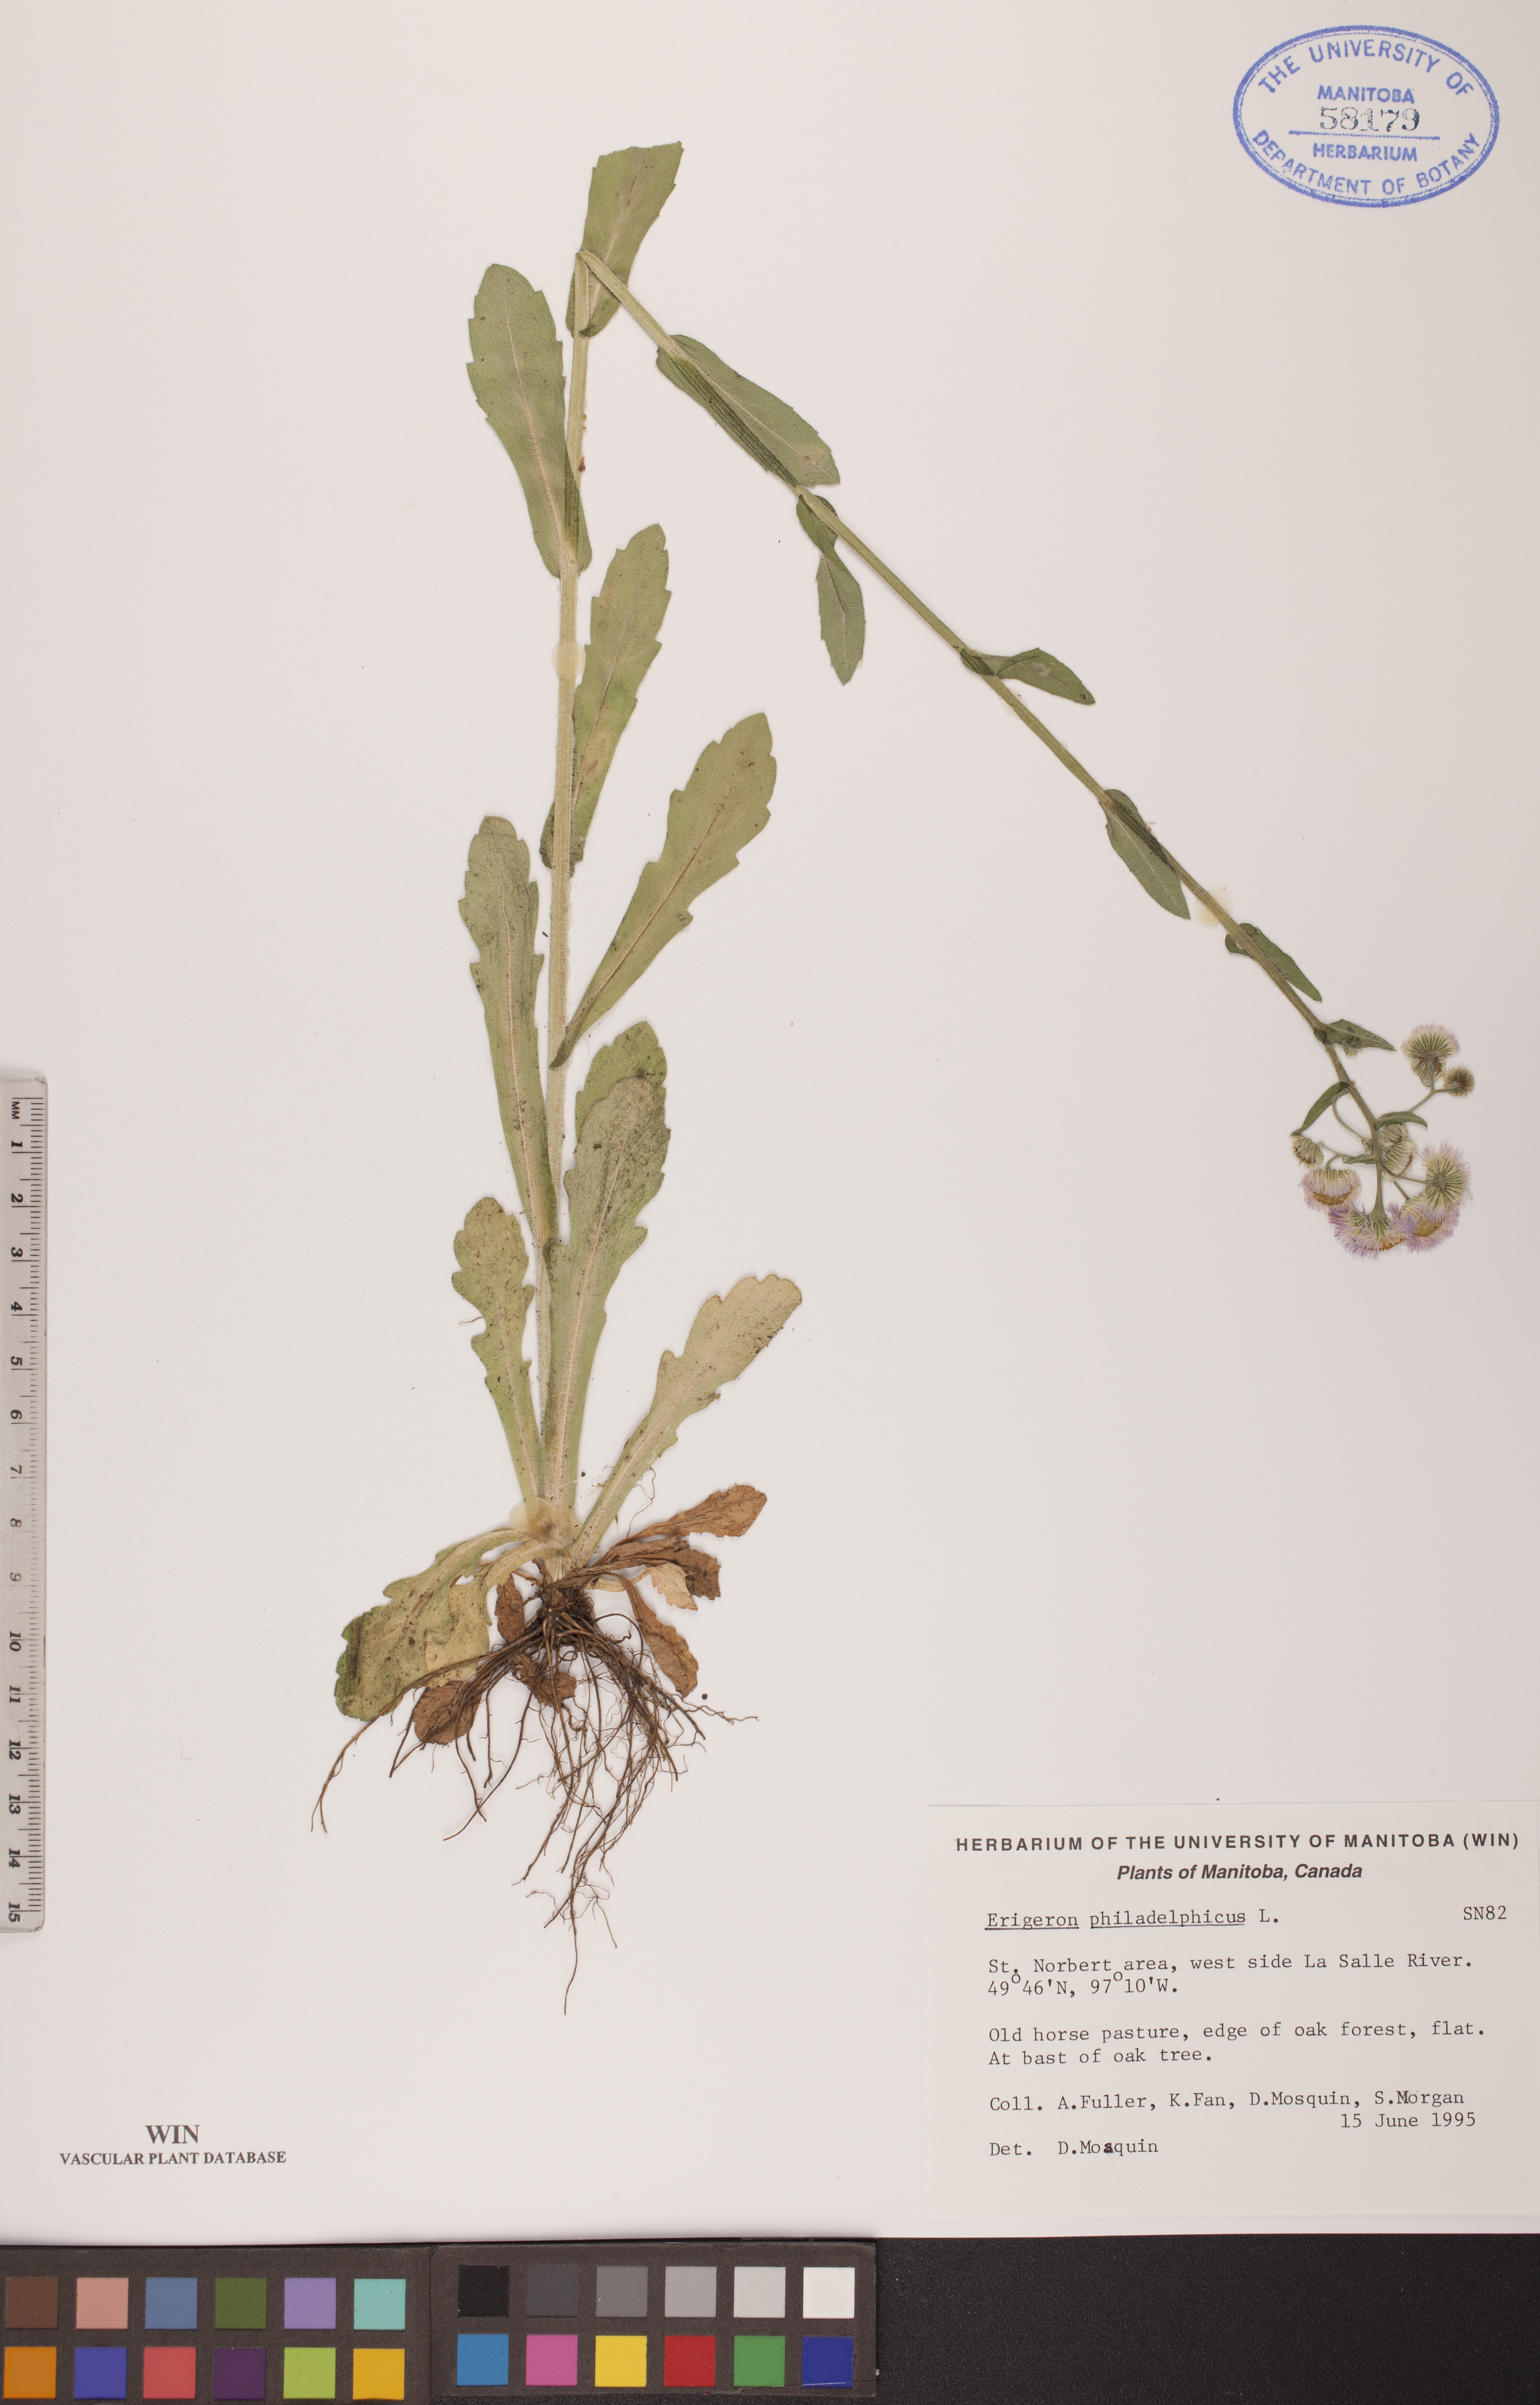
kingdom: Plantae
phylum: Tracheophyta
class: Magnoliopsida
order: Asterales
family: Asteraceae
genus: Erigeron
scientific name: Erigeron philadelphicus
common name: Robin's-plantain
